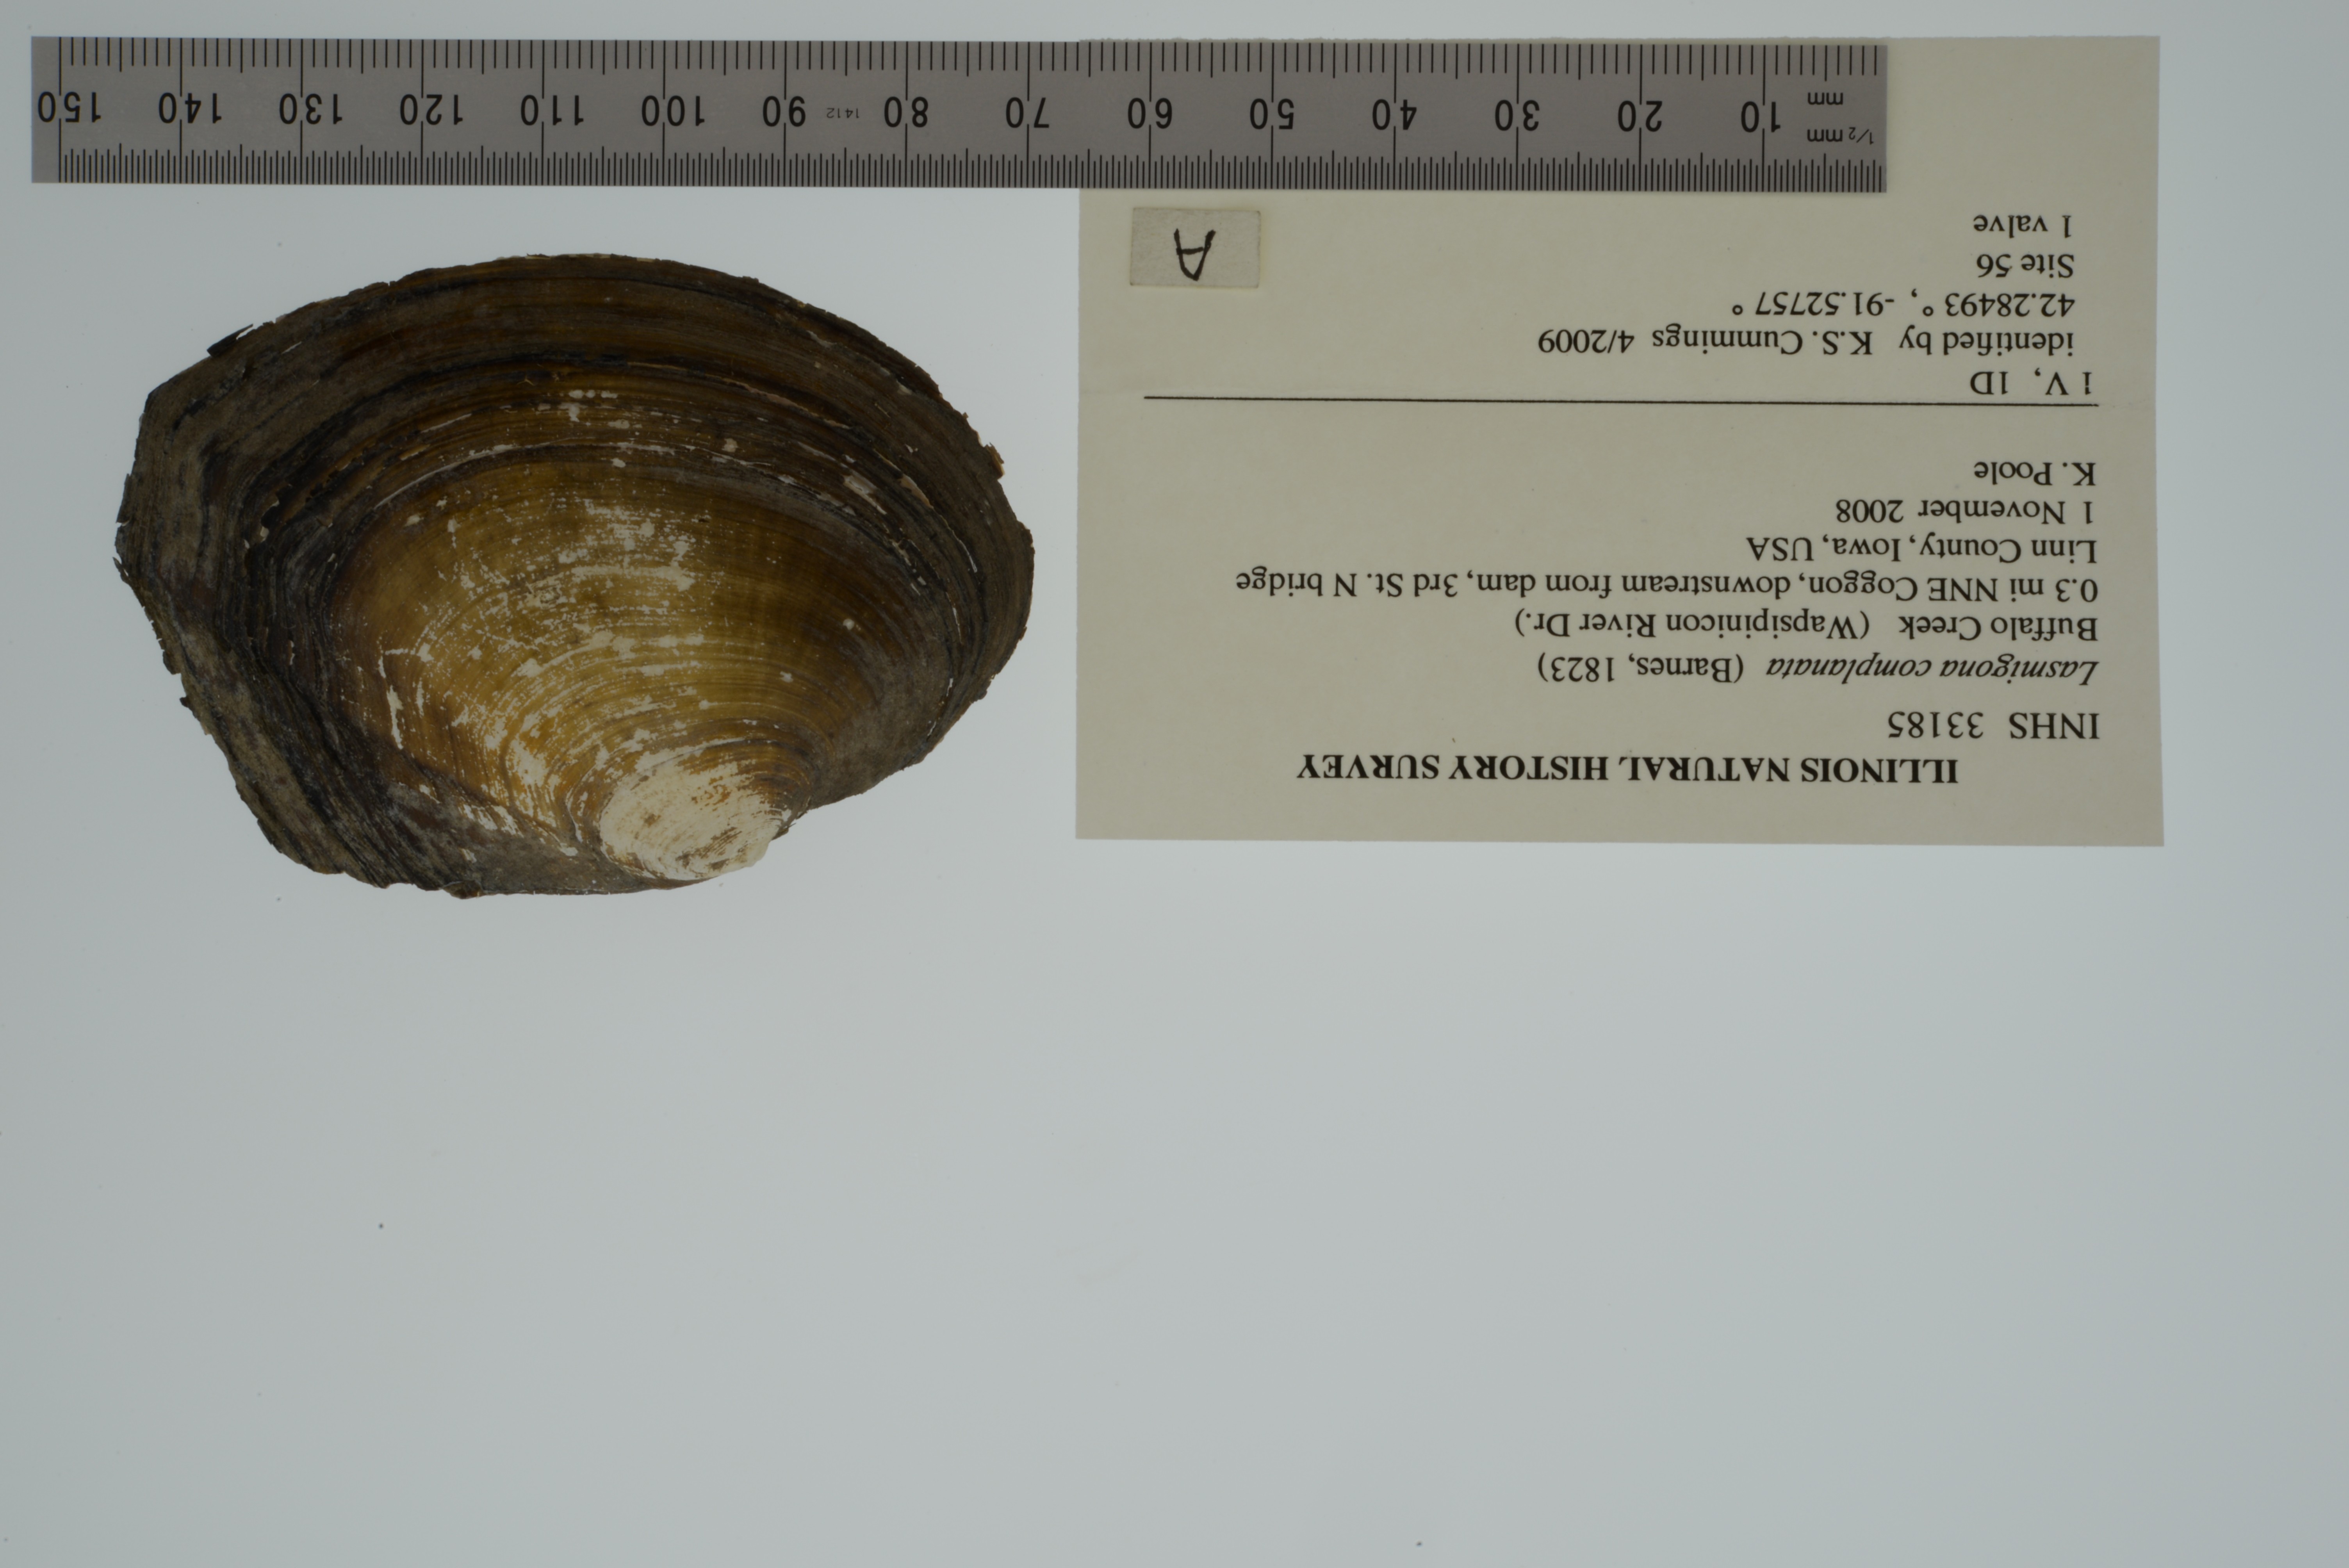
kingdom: Animalia
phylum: Mollusca
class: Bivalvia
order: Unionida
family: Unionidae
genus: Lasmigona
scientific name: Lasmigona complanata
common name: White heelsplitter
